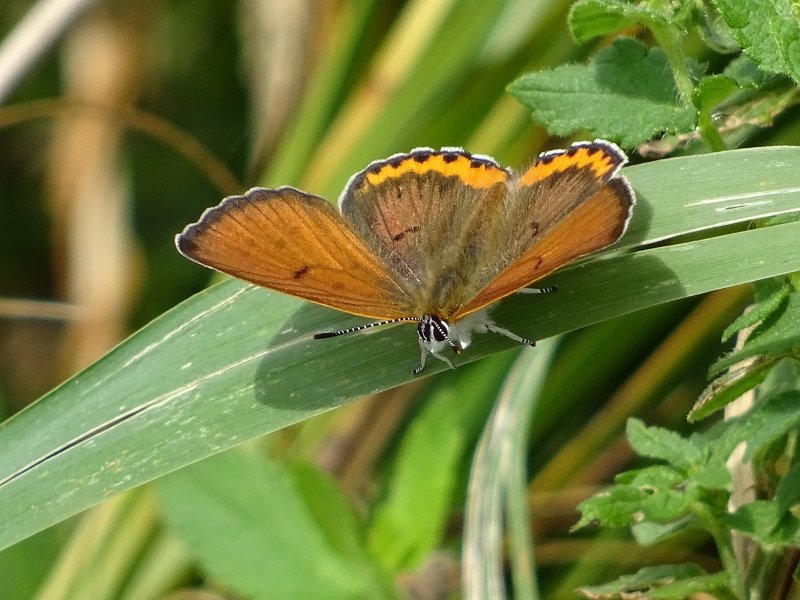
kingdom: Animalia
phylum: Arthropoda
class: Insecta
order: Lepidoptera
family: Sesiidae
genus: Sesia
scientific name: Sesia Lycaena hyllus
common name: Bronze Copper
